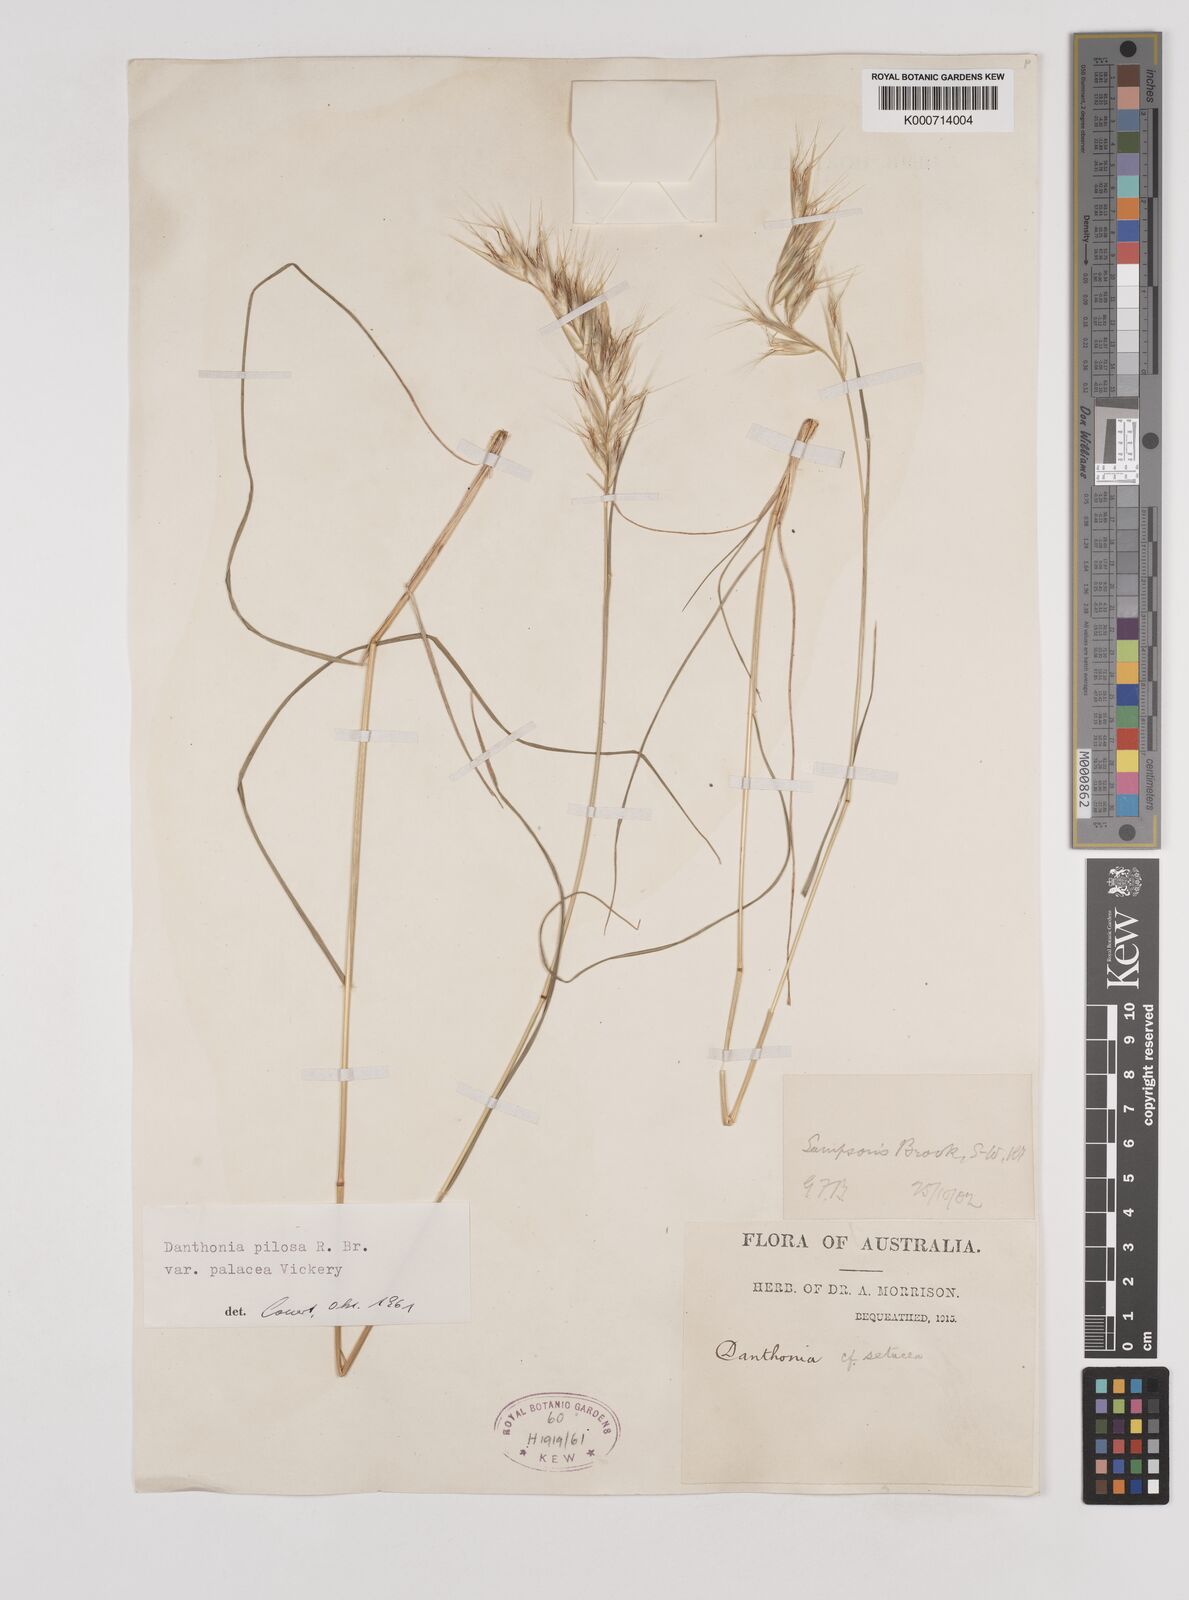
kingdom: Plantae
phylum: Tracheophyta
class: Liliopsida
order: Poales
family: Poaceae
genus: Rytidosperma
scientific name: Rytidosperma pilosum
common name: Hairy wallaby grass
